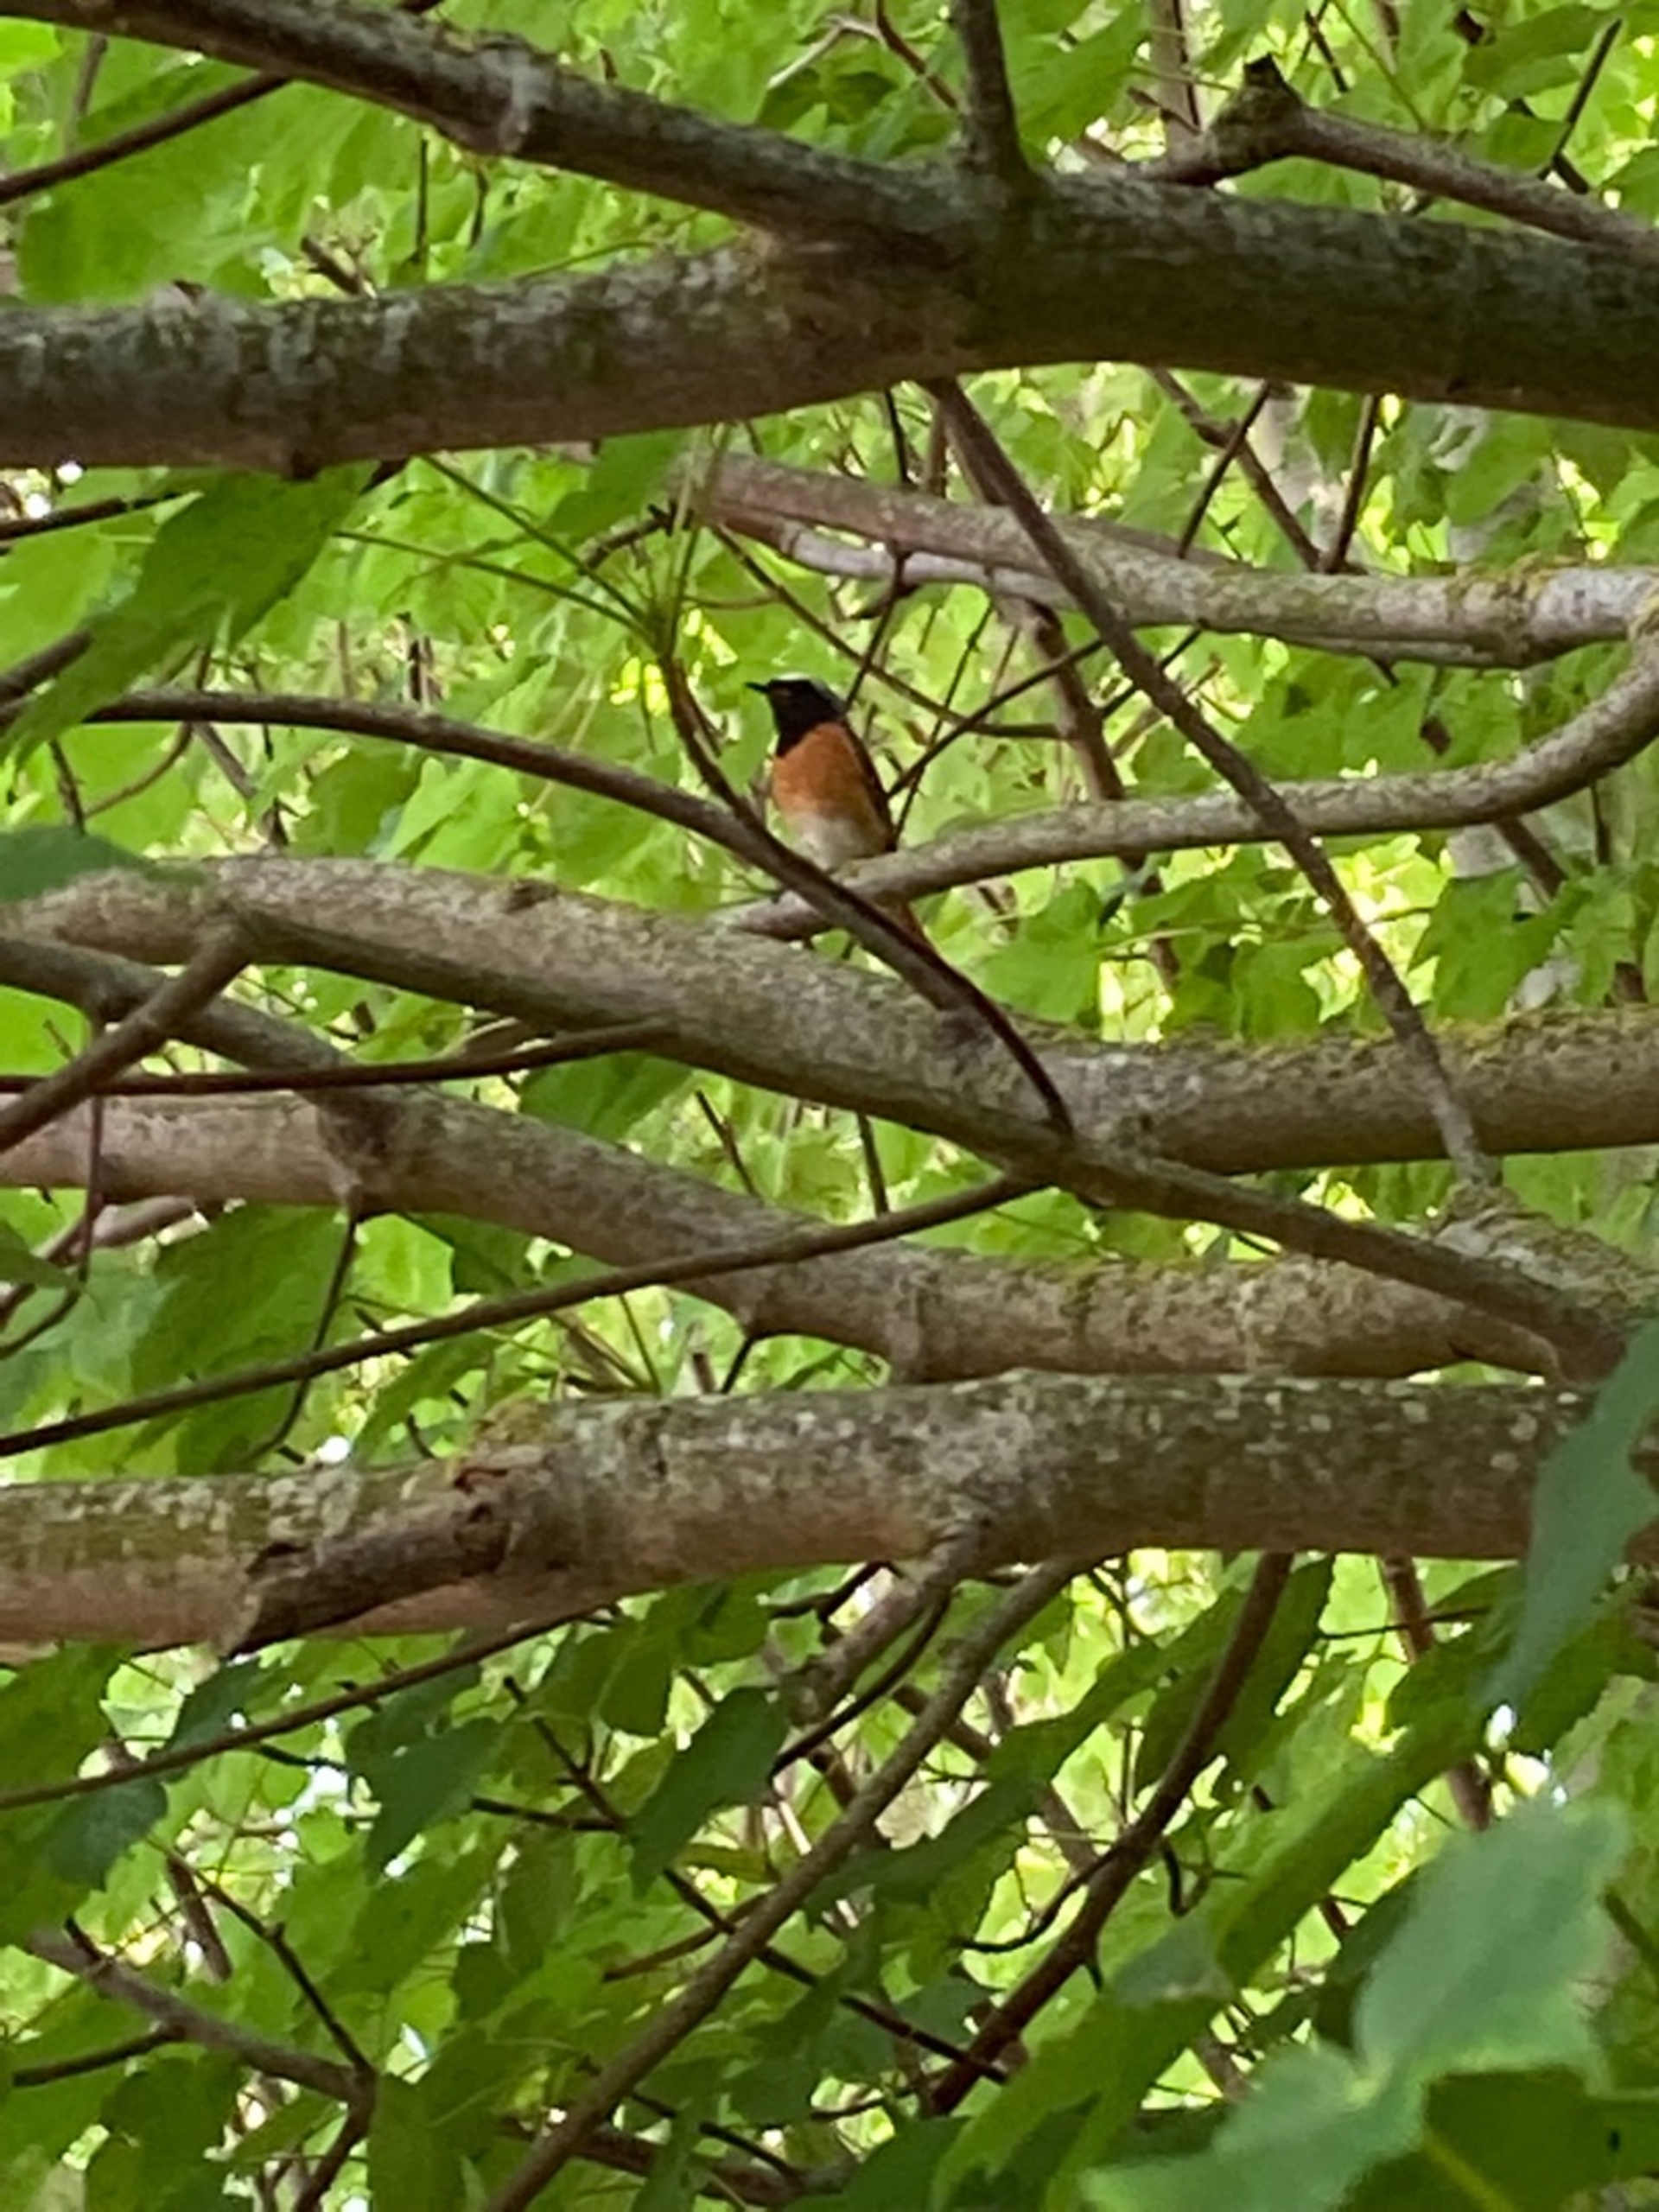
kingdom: Animalia
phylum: Chordata
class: Aves
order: Passeriformes
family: Muscicapidae
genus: Phoenicurus
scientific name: Phoenicurus phoenicurus
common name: Rødstjert
